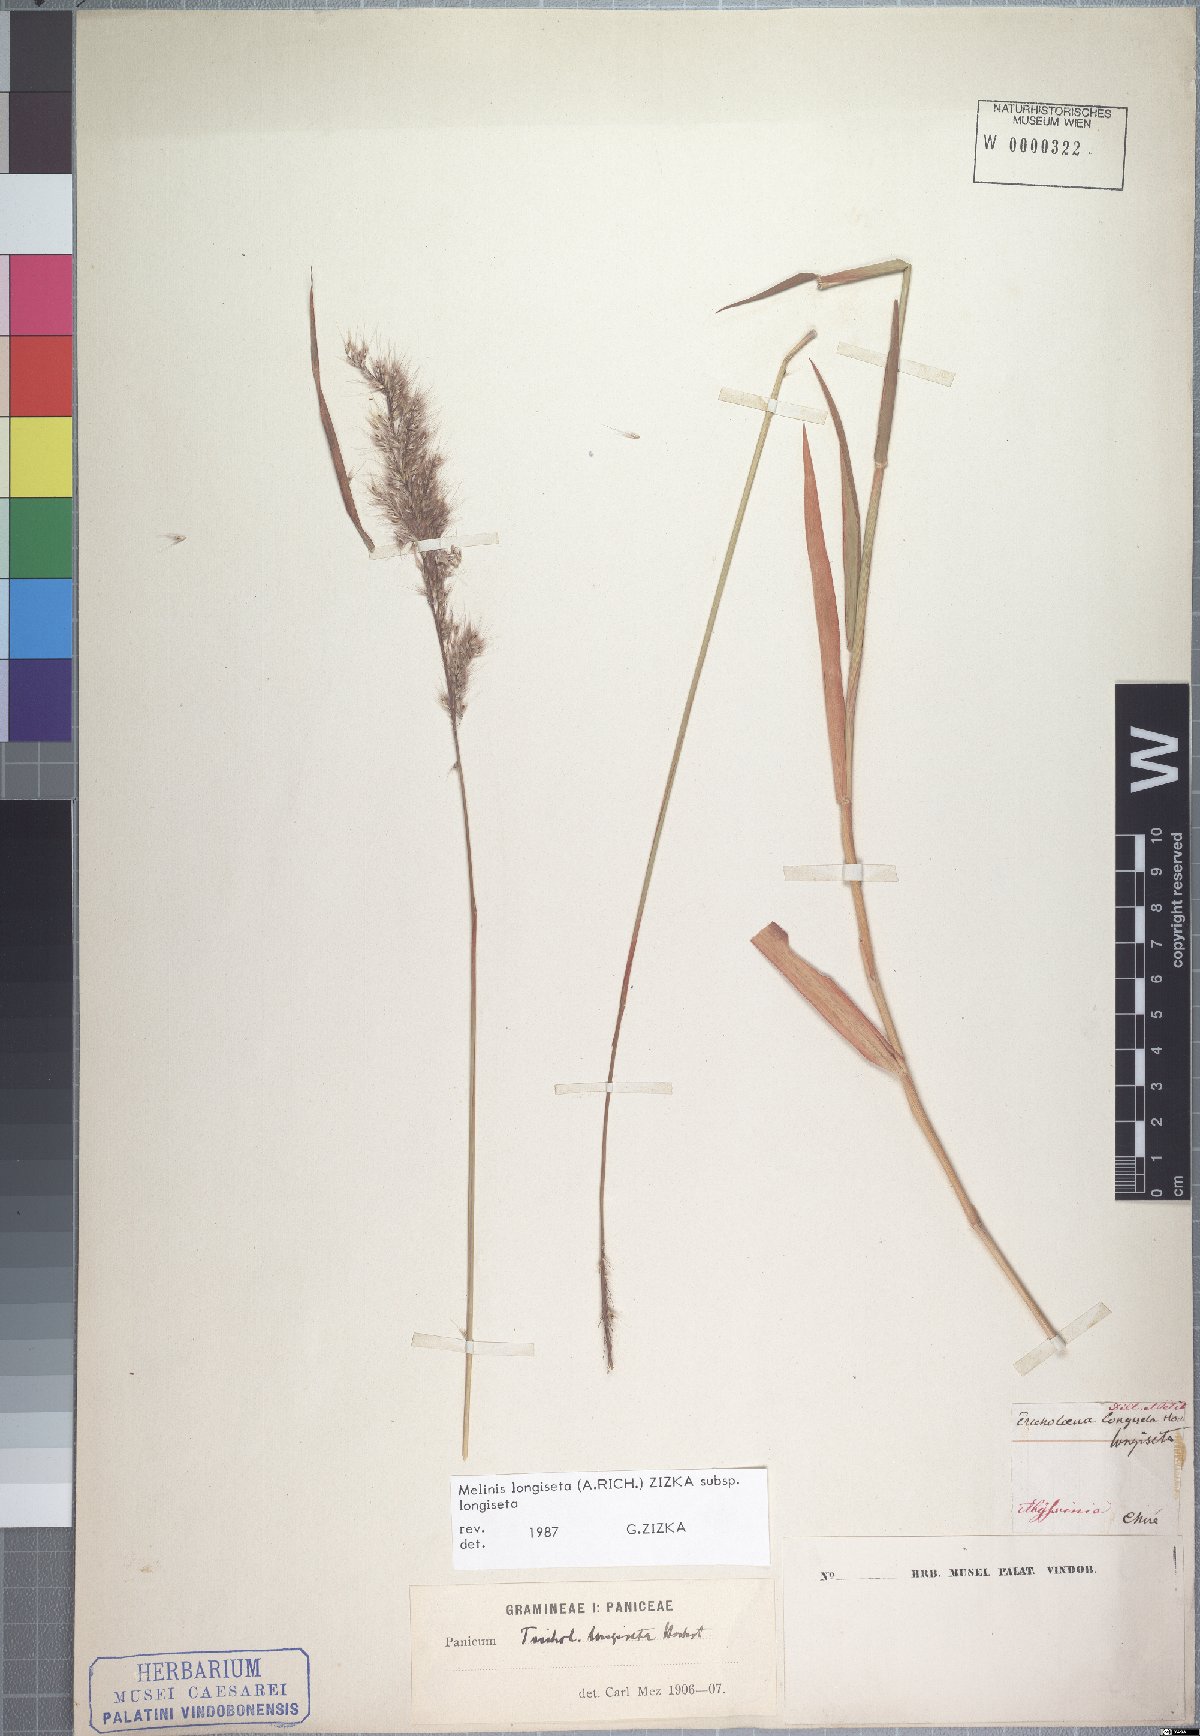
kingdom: Plantae
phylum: Tracheophyta
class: Liliopsida
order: Poales
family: Poaceae
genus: Melinis
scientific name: Melinis longiseta
